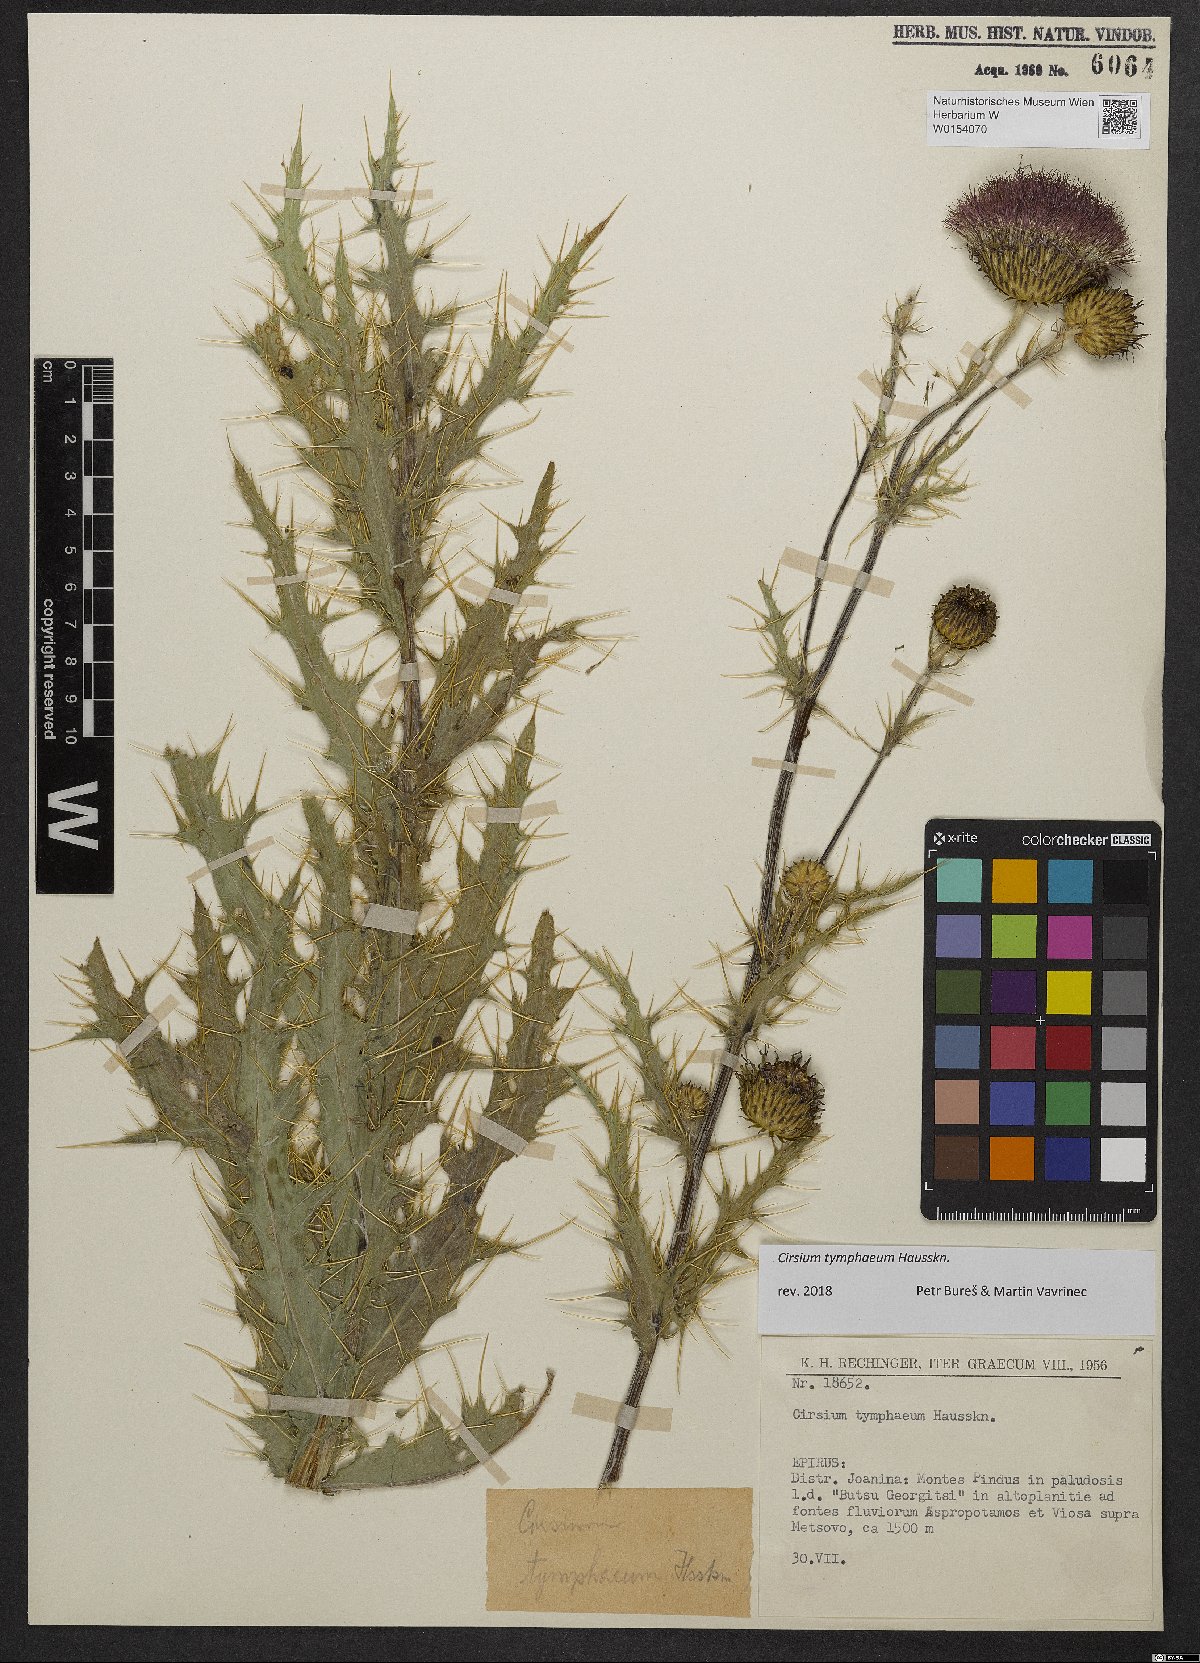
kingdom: Plantae
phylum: Tracheophyta
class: Magnoliopsida
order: Asterales
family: Asteraceae
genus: Cirsium
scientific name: Cirsium wallichii
